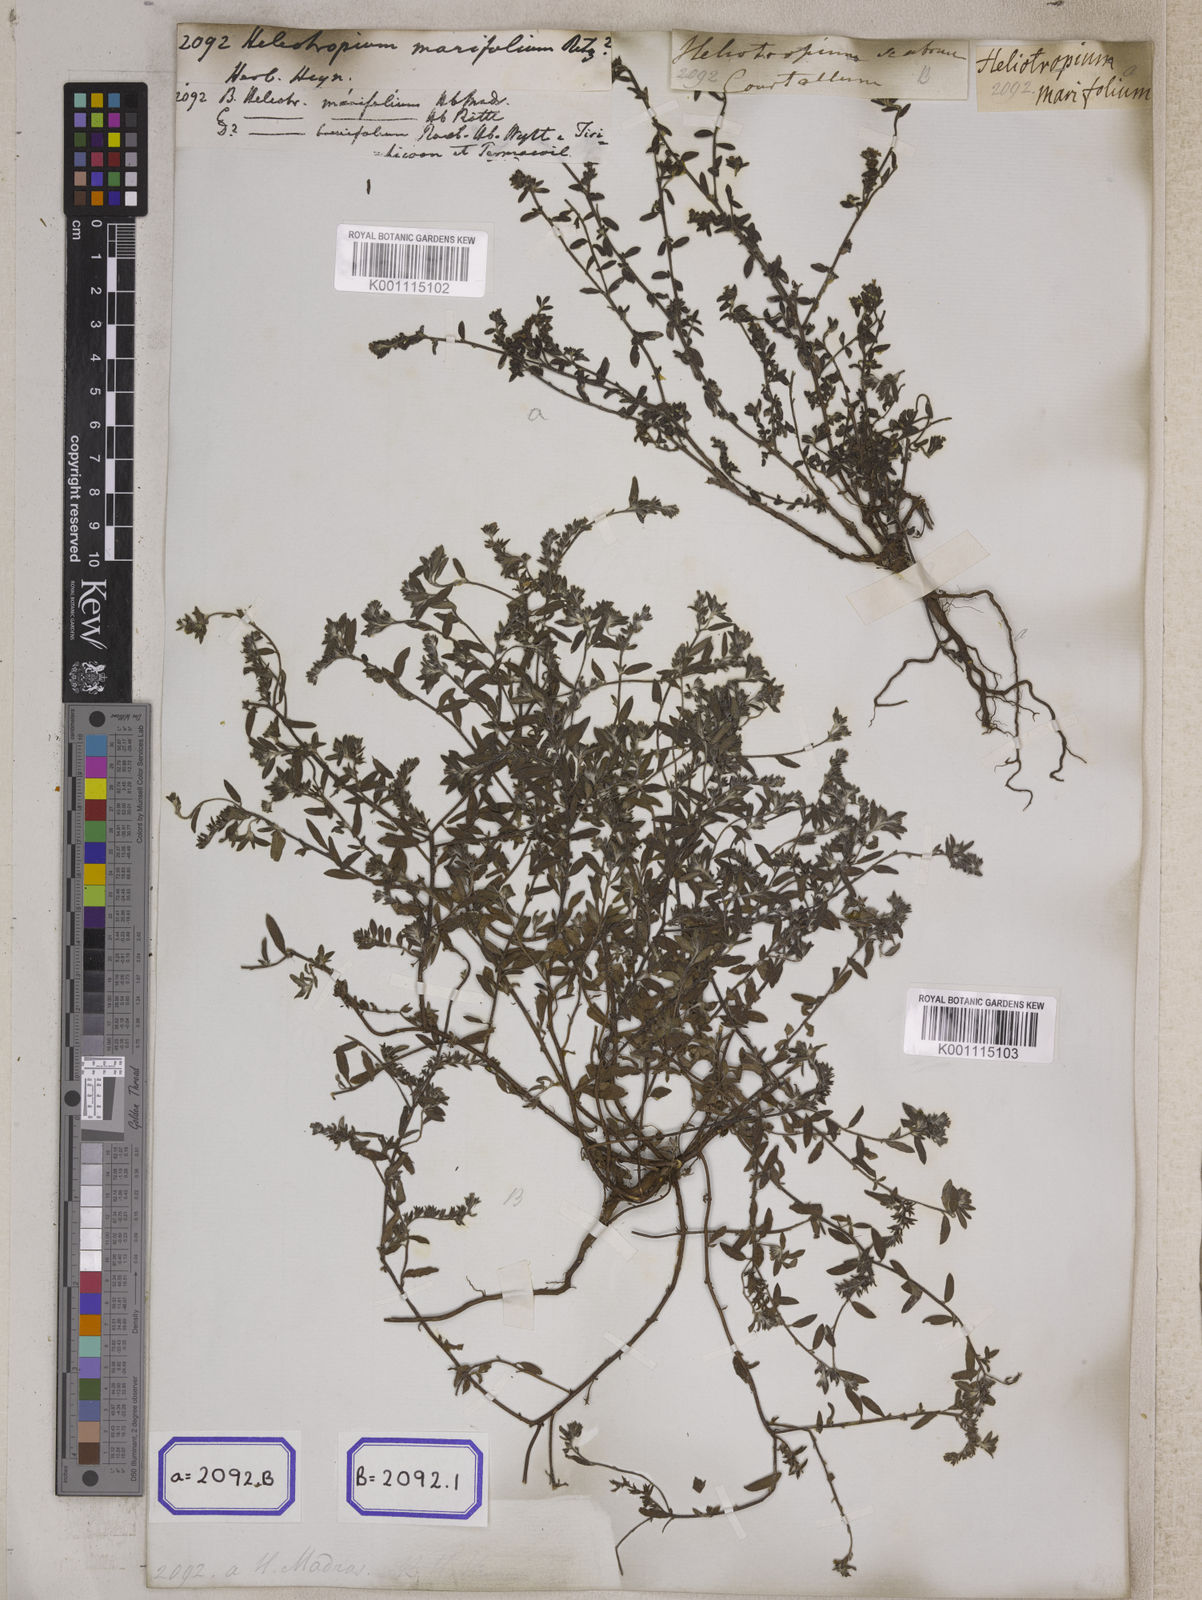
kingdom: Plantae
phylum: Tracheophyta
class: Magnoliopsida
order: Boraginales
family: Heliotropiaceae
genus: Euploca
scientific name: Euploca marifolia
